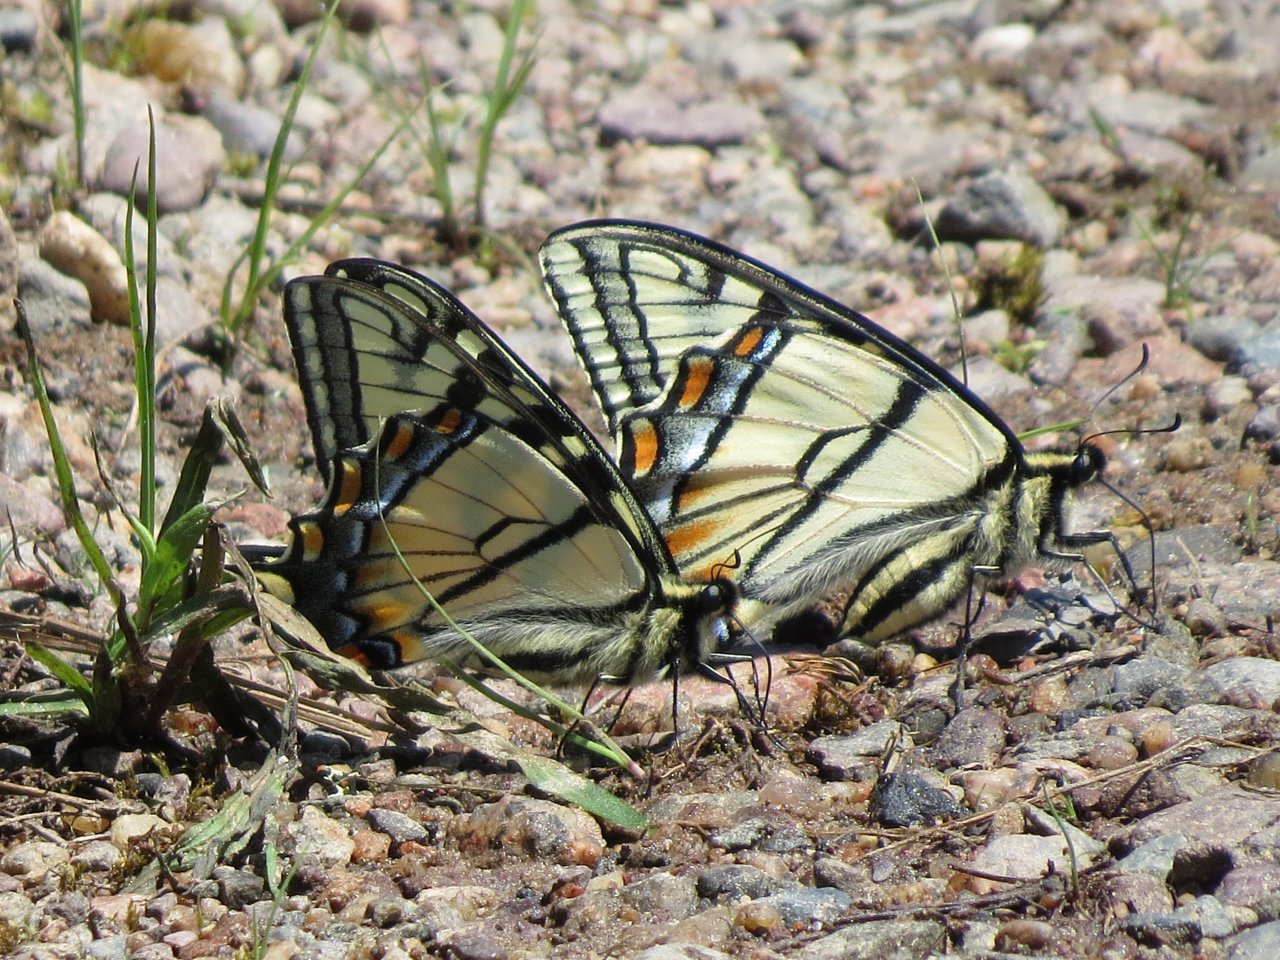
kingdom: Animalia
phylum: Arthropoda
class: Insecta
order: Lepidoptera
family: Papilionidae
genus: Pterourus
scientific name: Pterourus canadensis
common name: Canadian Tiger Swallowtail
